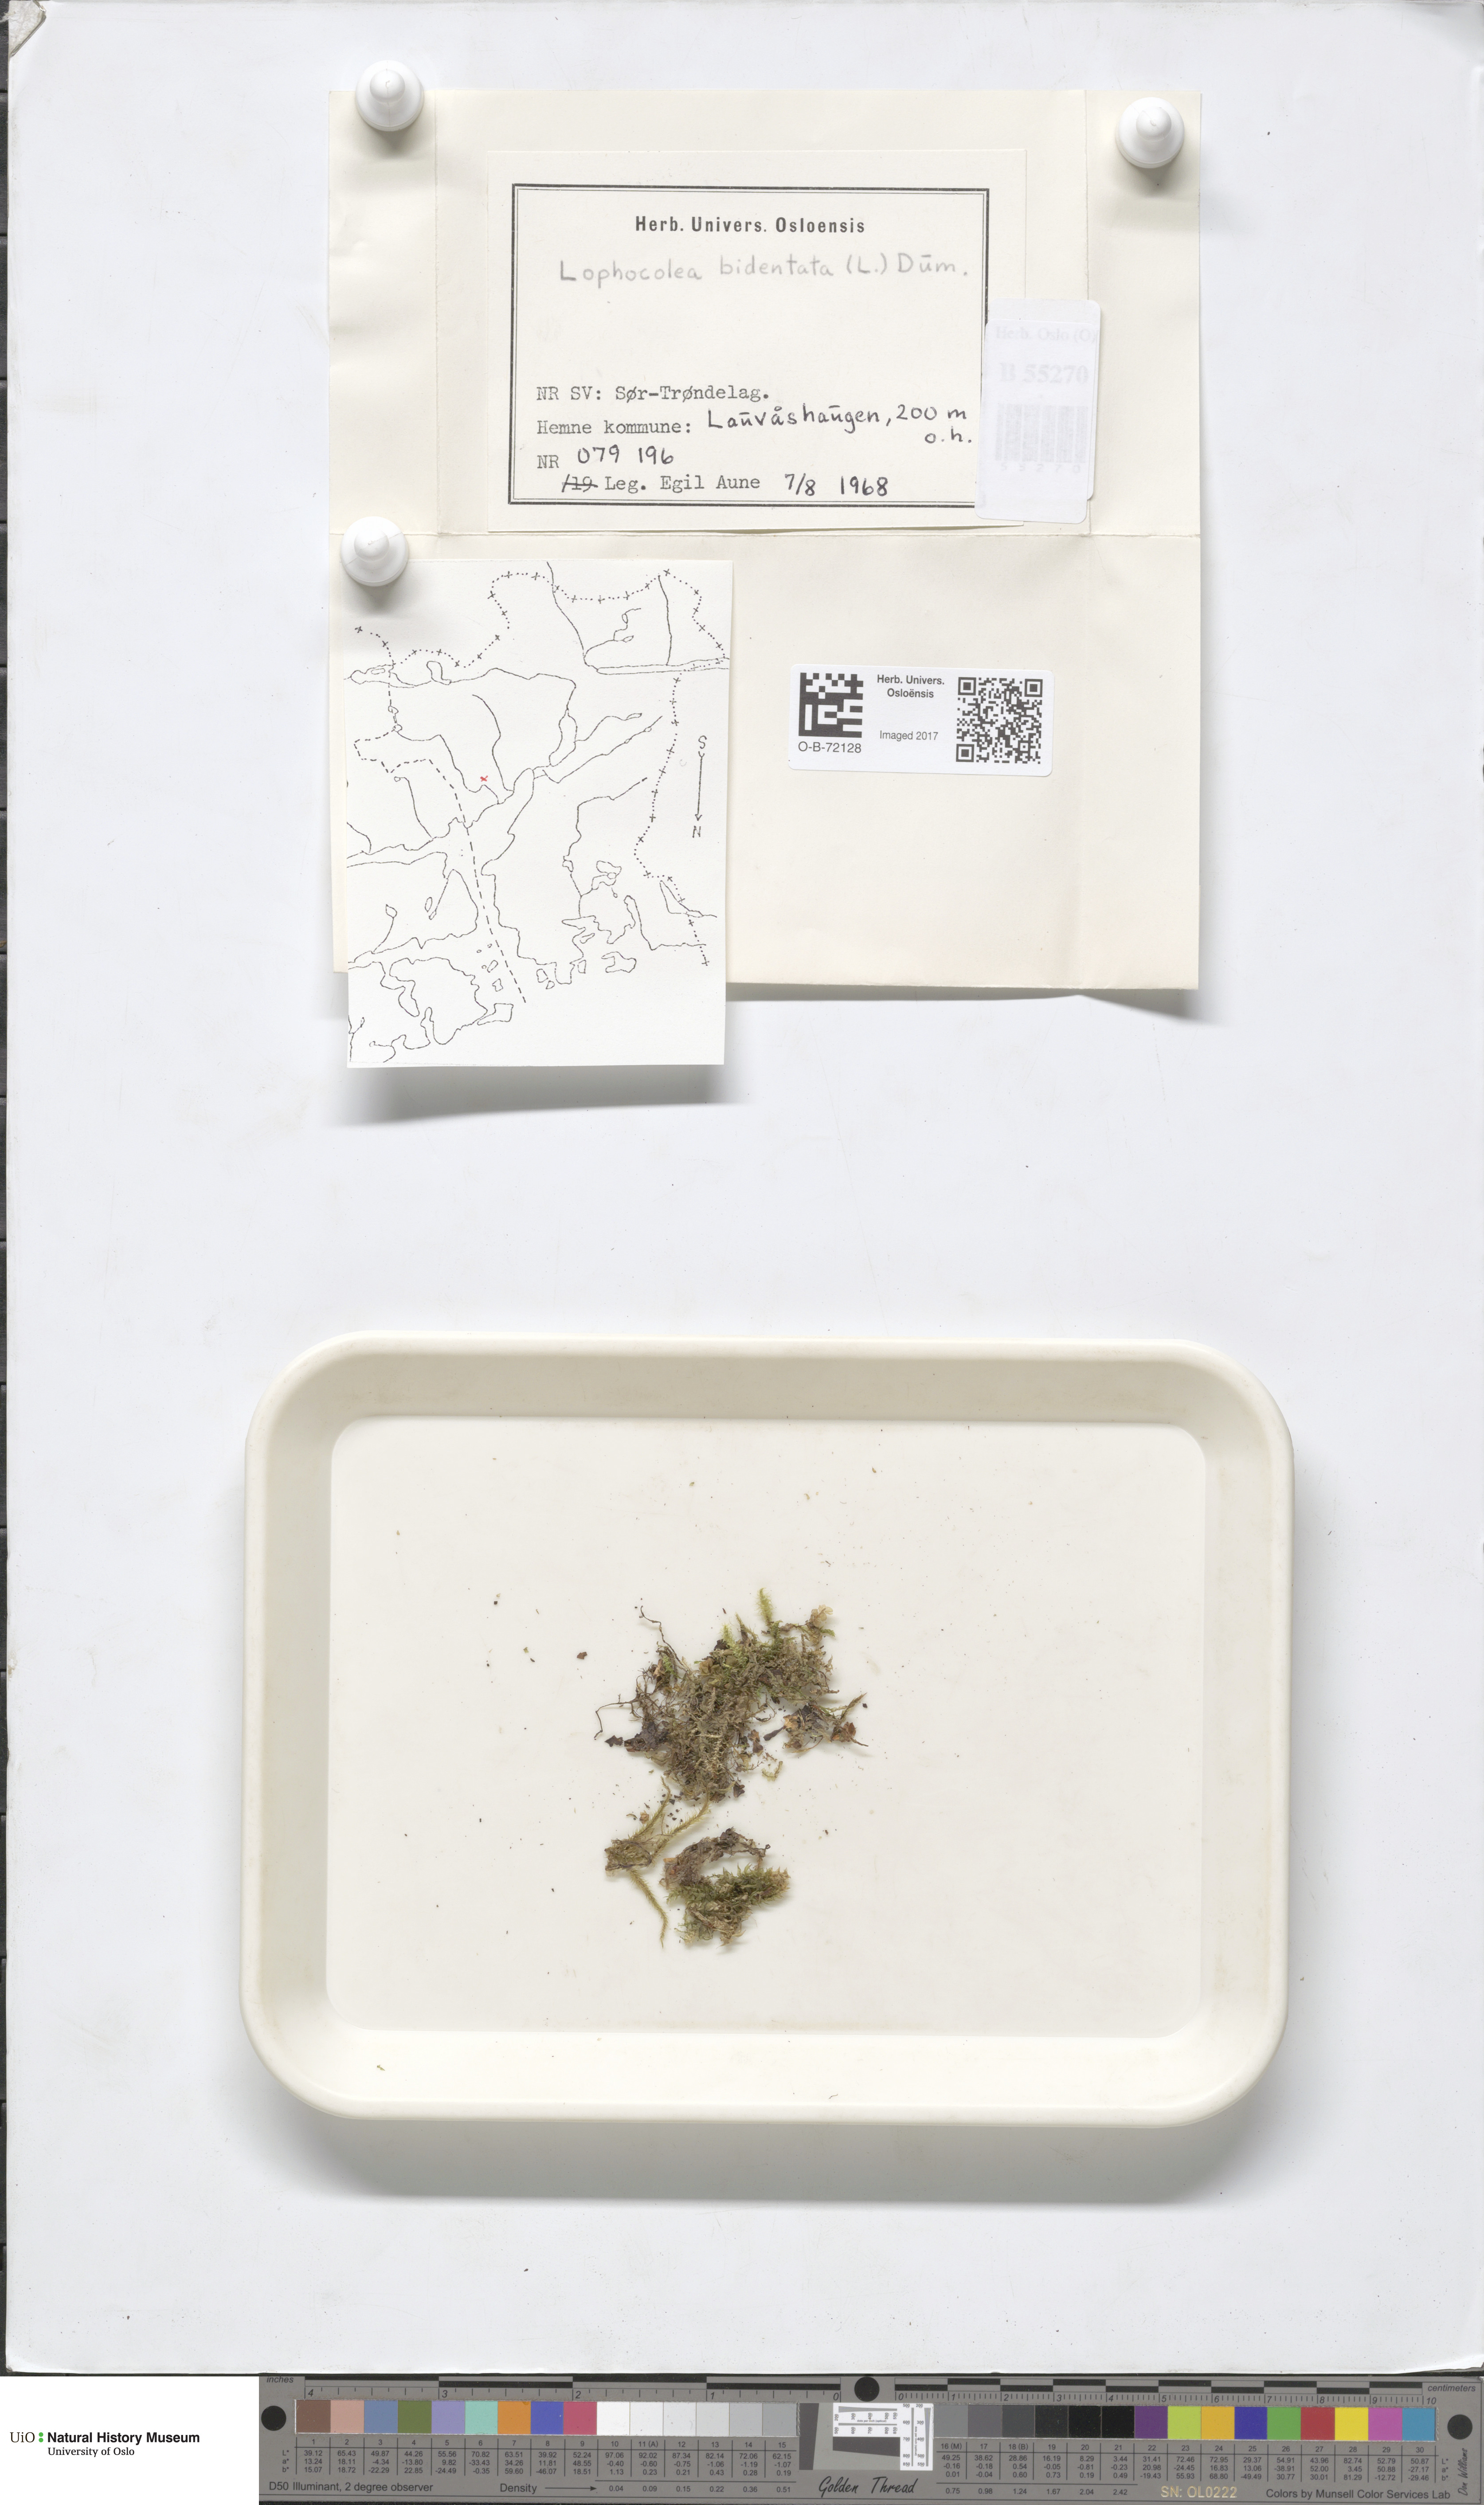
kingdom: Plantae
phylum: Marchantiophyta
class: Jungermanniopsida
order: Jungermanniales
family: Lophocoleaceae
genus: Chiloscyphus
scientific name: Chiloscyphus polyanthos
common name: Square-leaved crestwort
